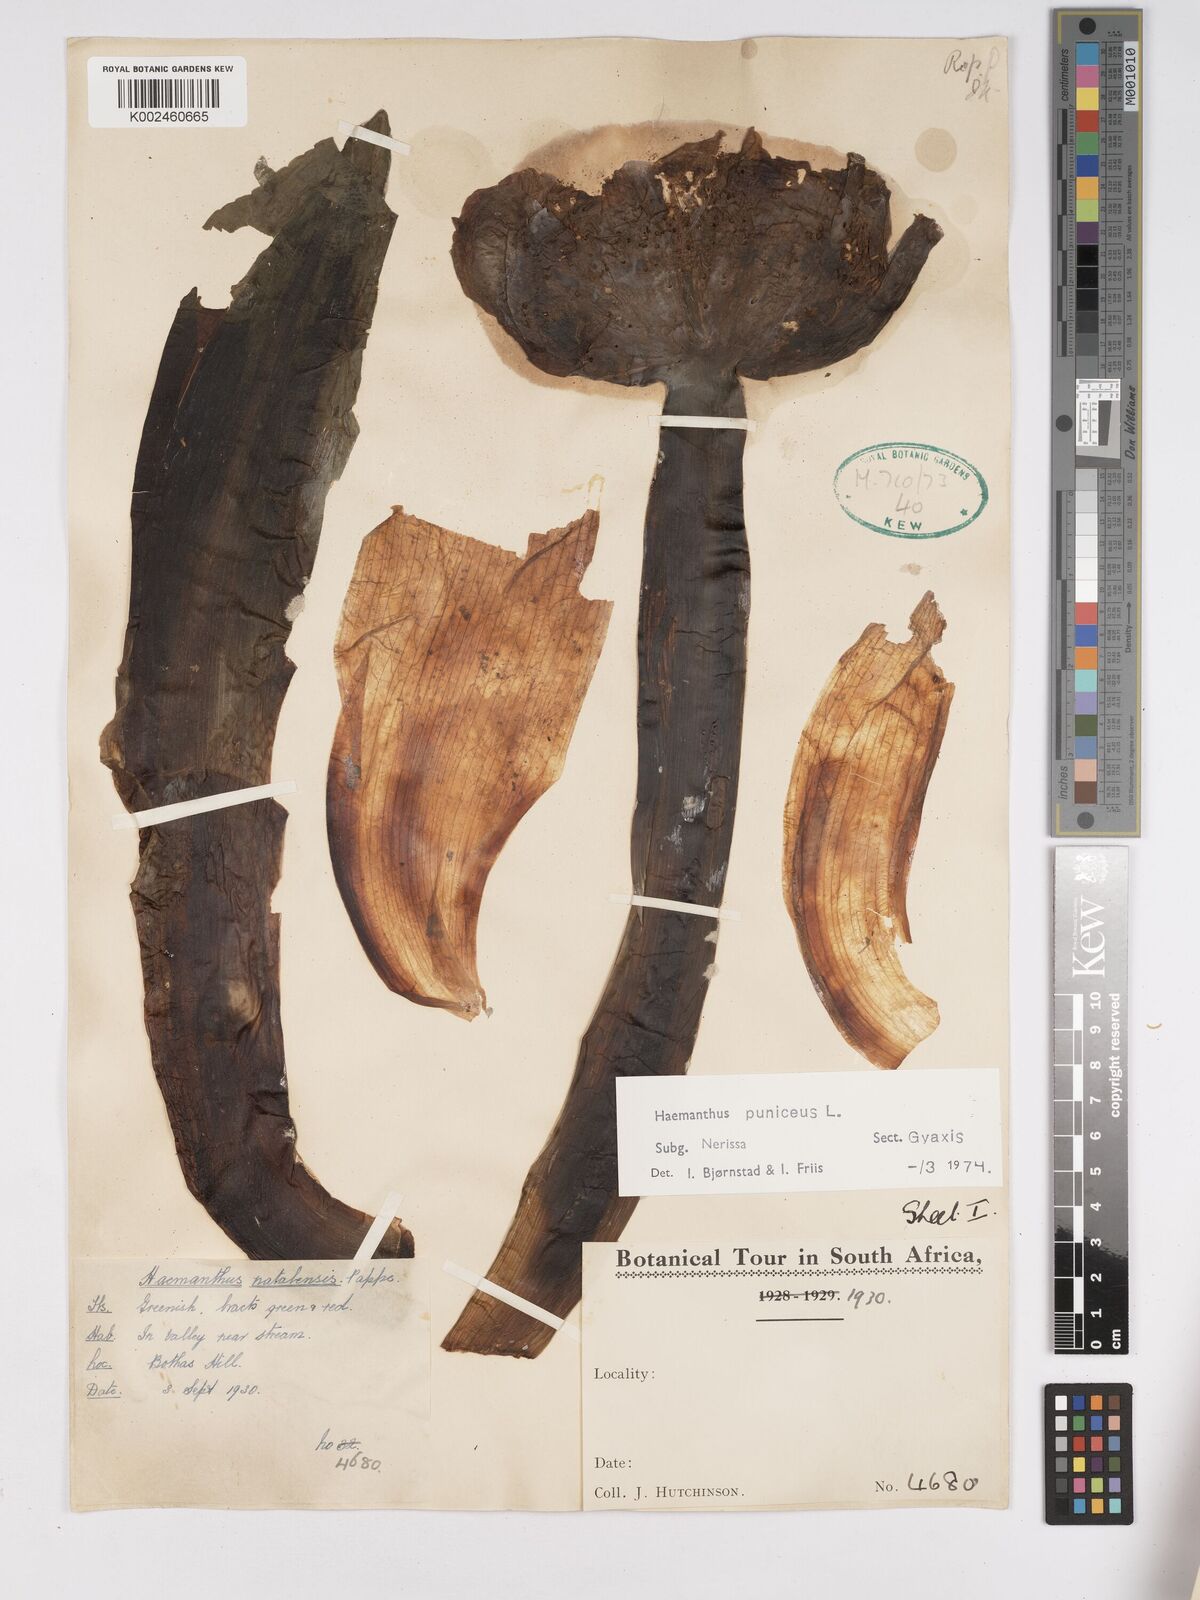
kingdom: Plantae
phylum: Tracheophyta
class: Liliopsida
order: Asparagales
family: Amaryllidaceae
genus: Scadoxus
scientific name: Scadoxus puniceus
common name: Royal-paintbrush
